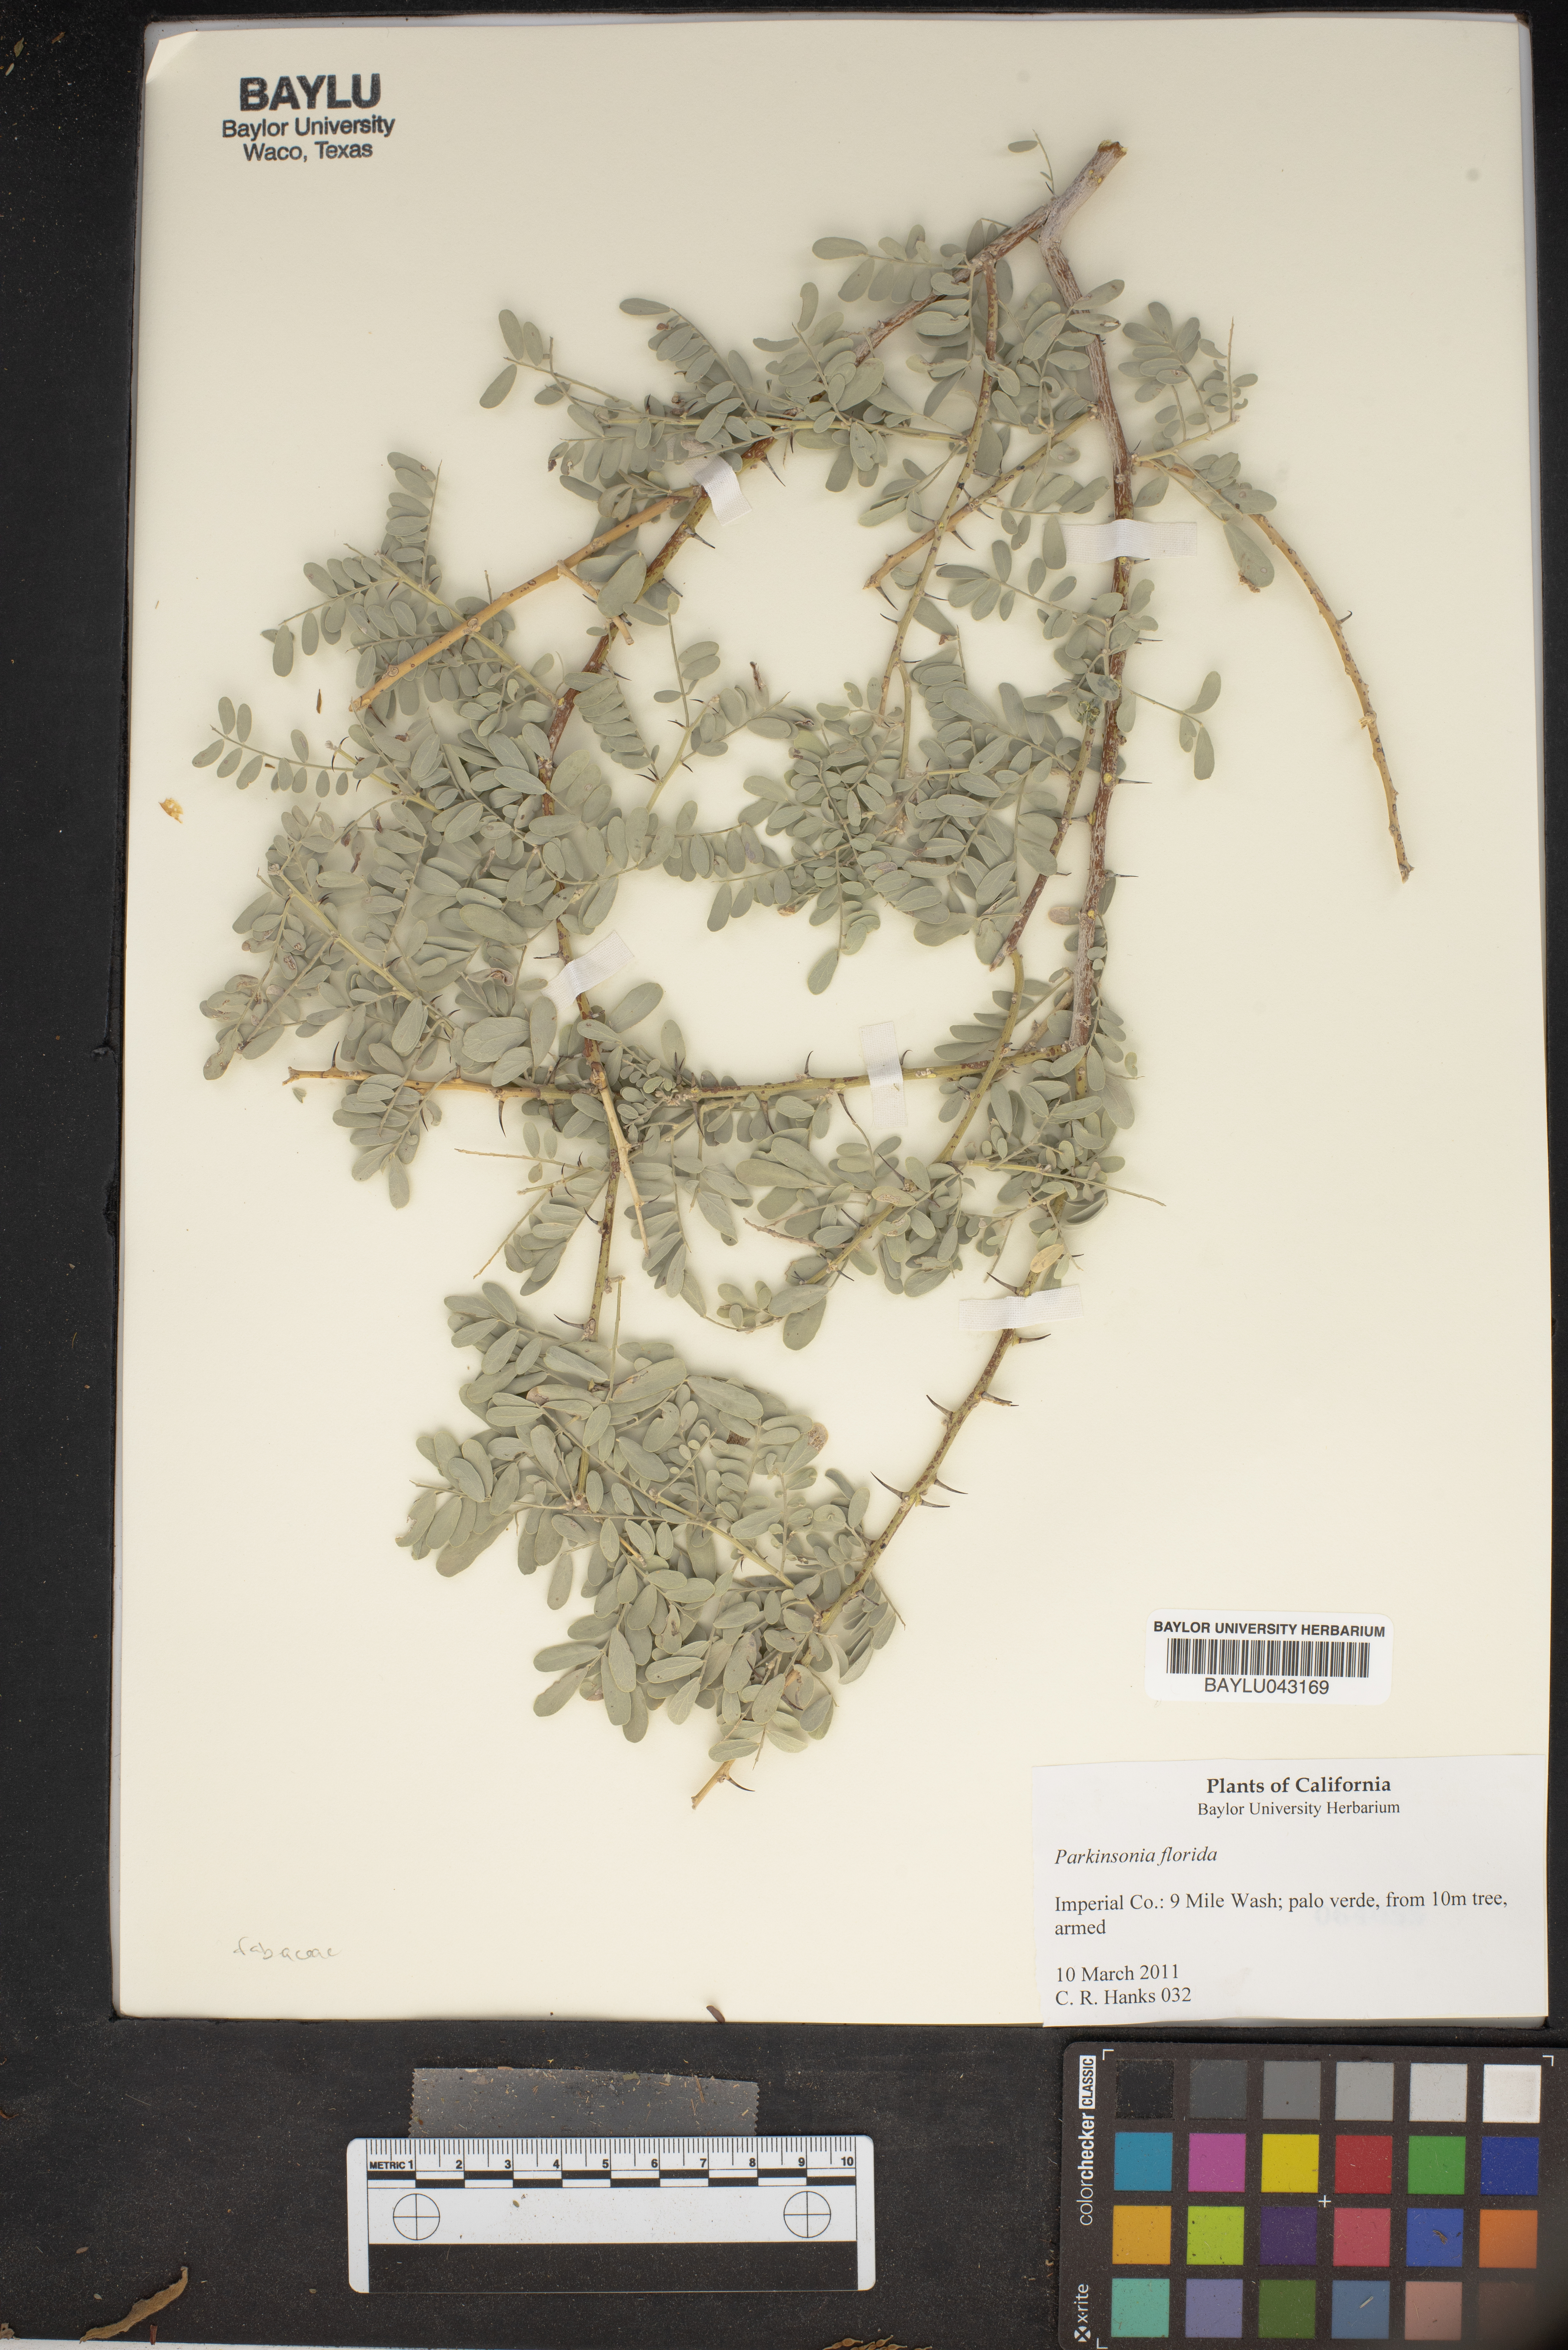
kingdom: Plantae
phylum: Tracheophyta
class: Magnoliopsida
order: Fabales
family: Fabaceae
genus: Parkinsonia
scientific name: Parkinsonia florida
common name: Blue paloverde
